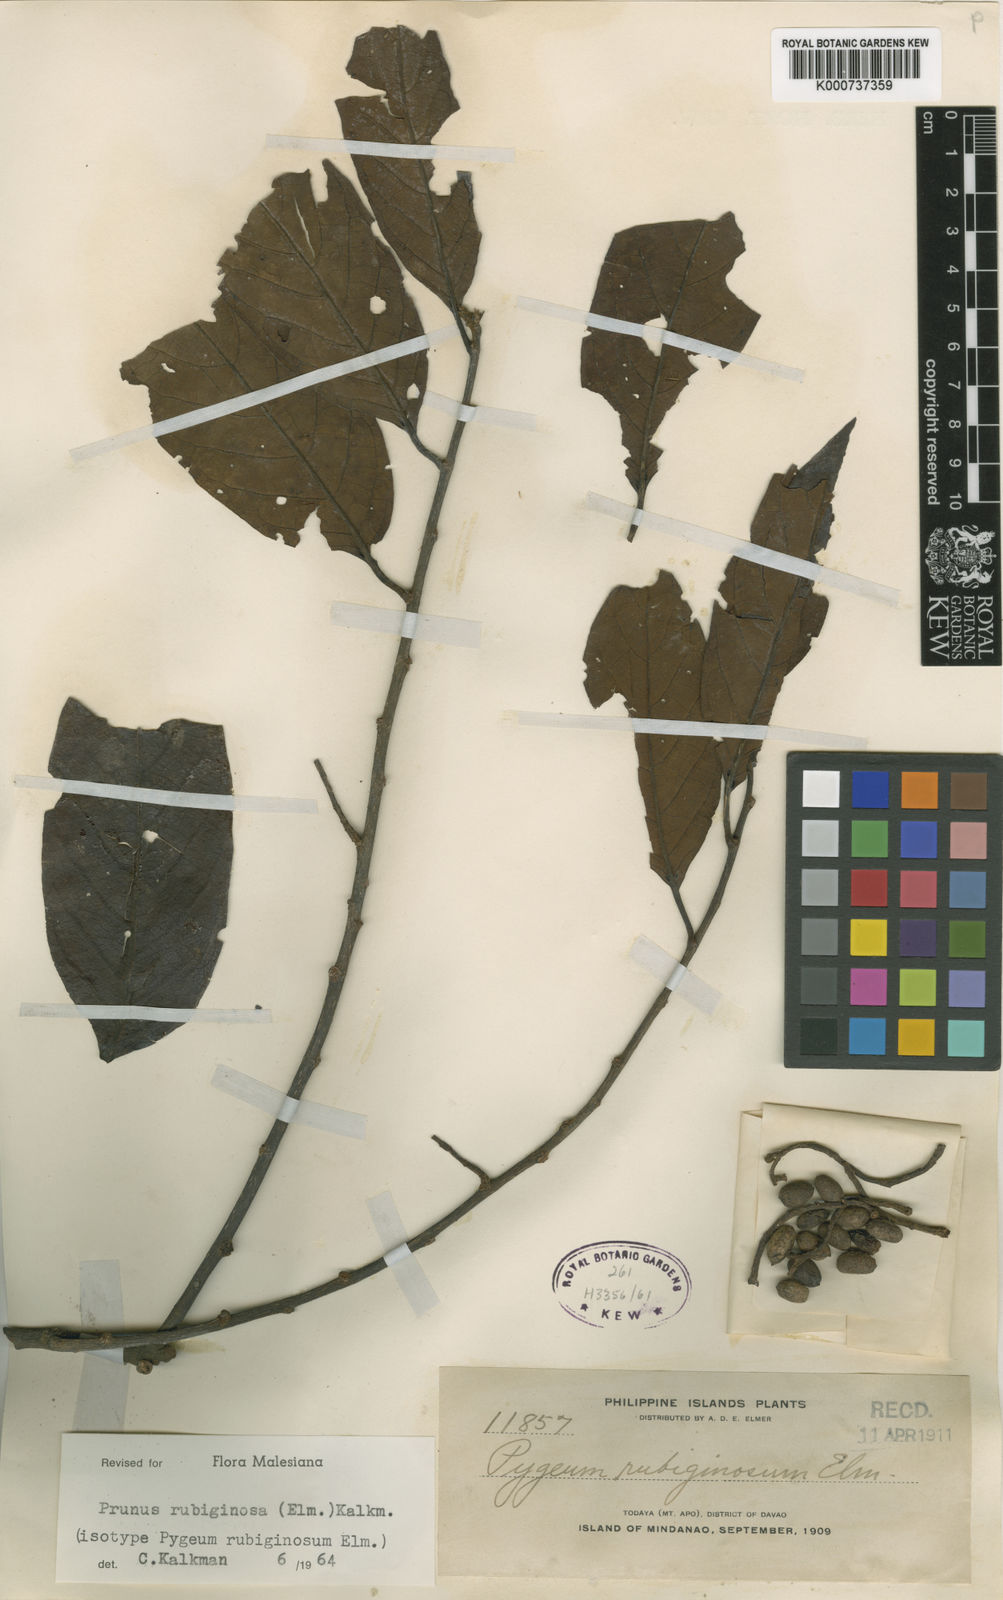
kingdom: Plantae
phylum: Tracheophyta
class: Magnoliopsida
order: Rosales
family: Rosaceae
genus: Prunus
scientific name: Prunus rubiginosa
